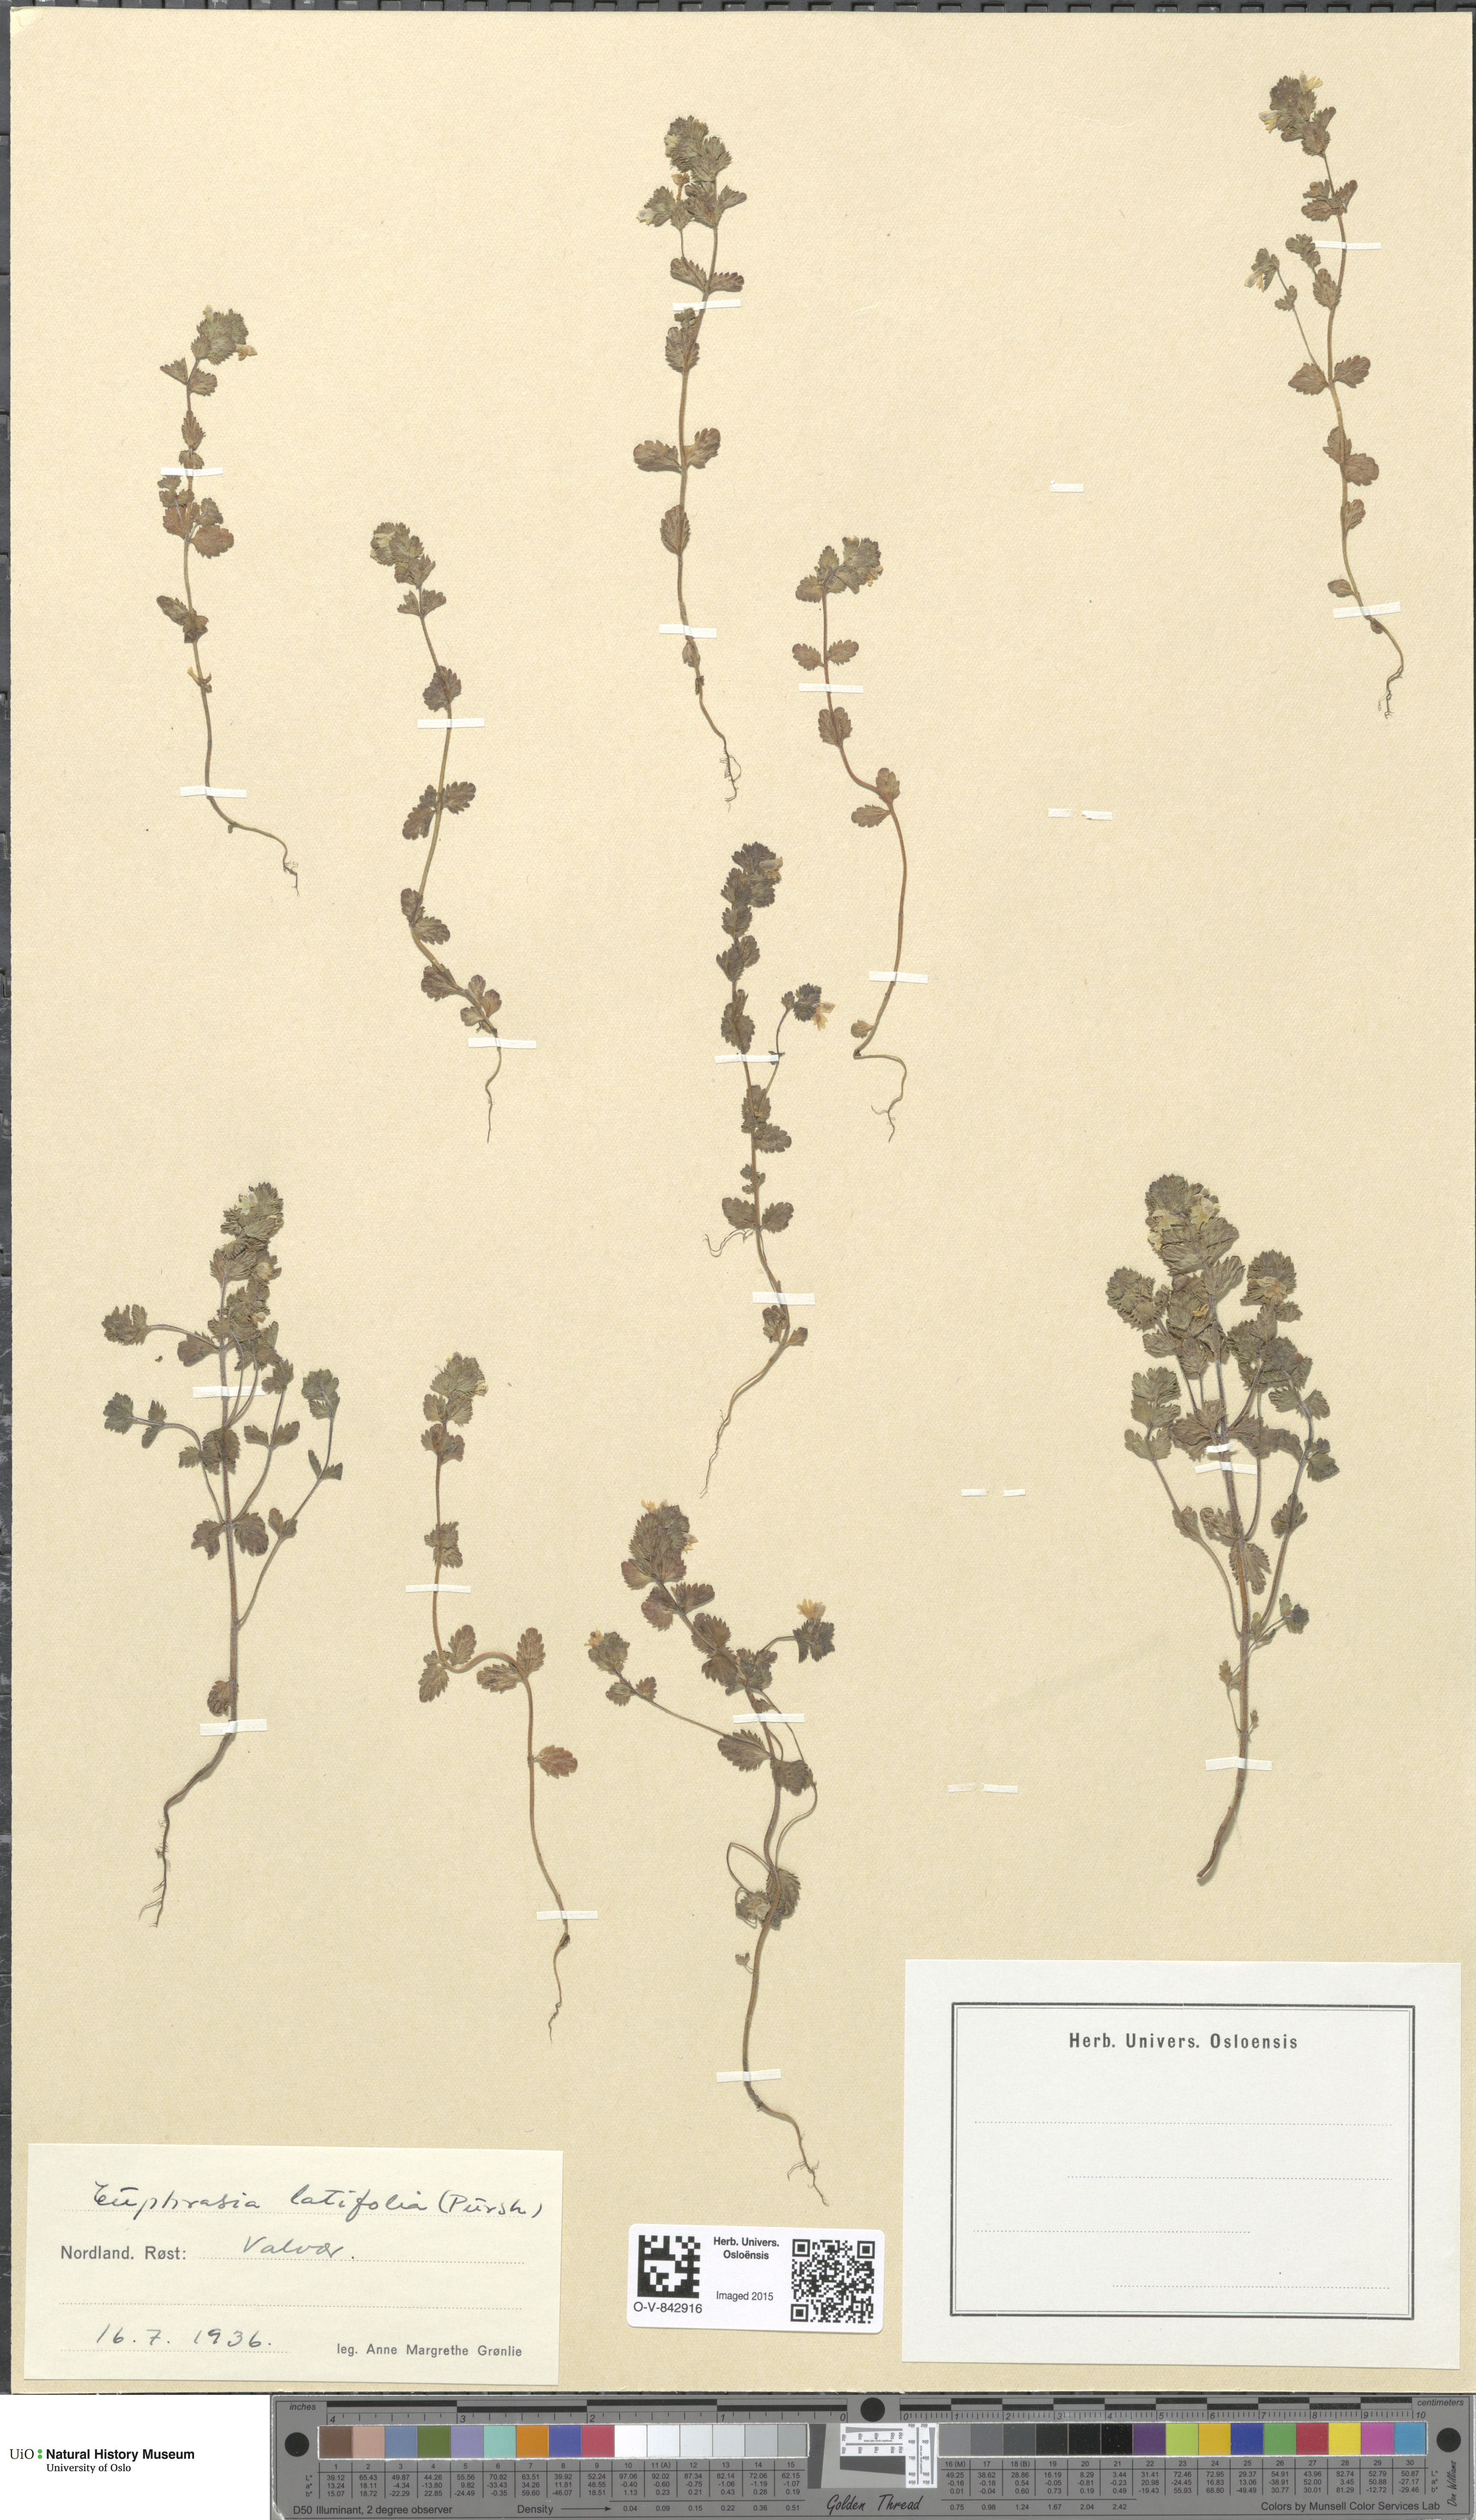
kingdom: Plantae
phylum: Tracheophyta
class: Magnoliopsida
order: Lamiales
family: Orobanchaceae
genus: Euphrasia
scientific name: Euphrasia wettsteinii
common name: Wettstein's eyebright
